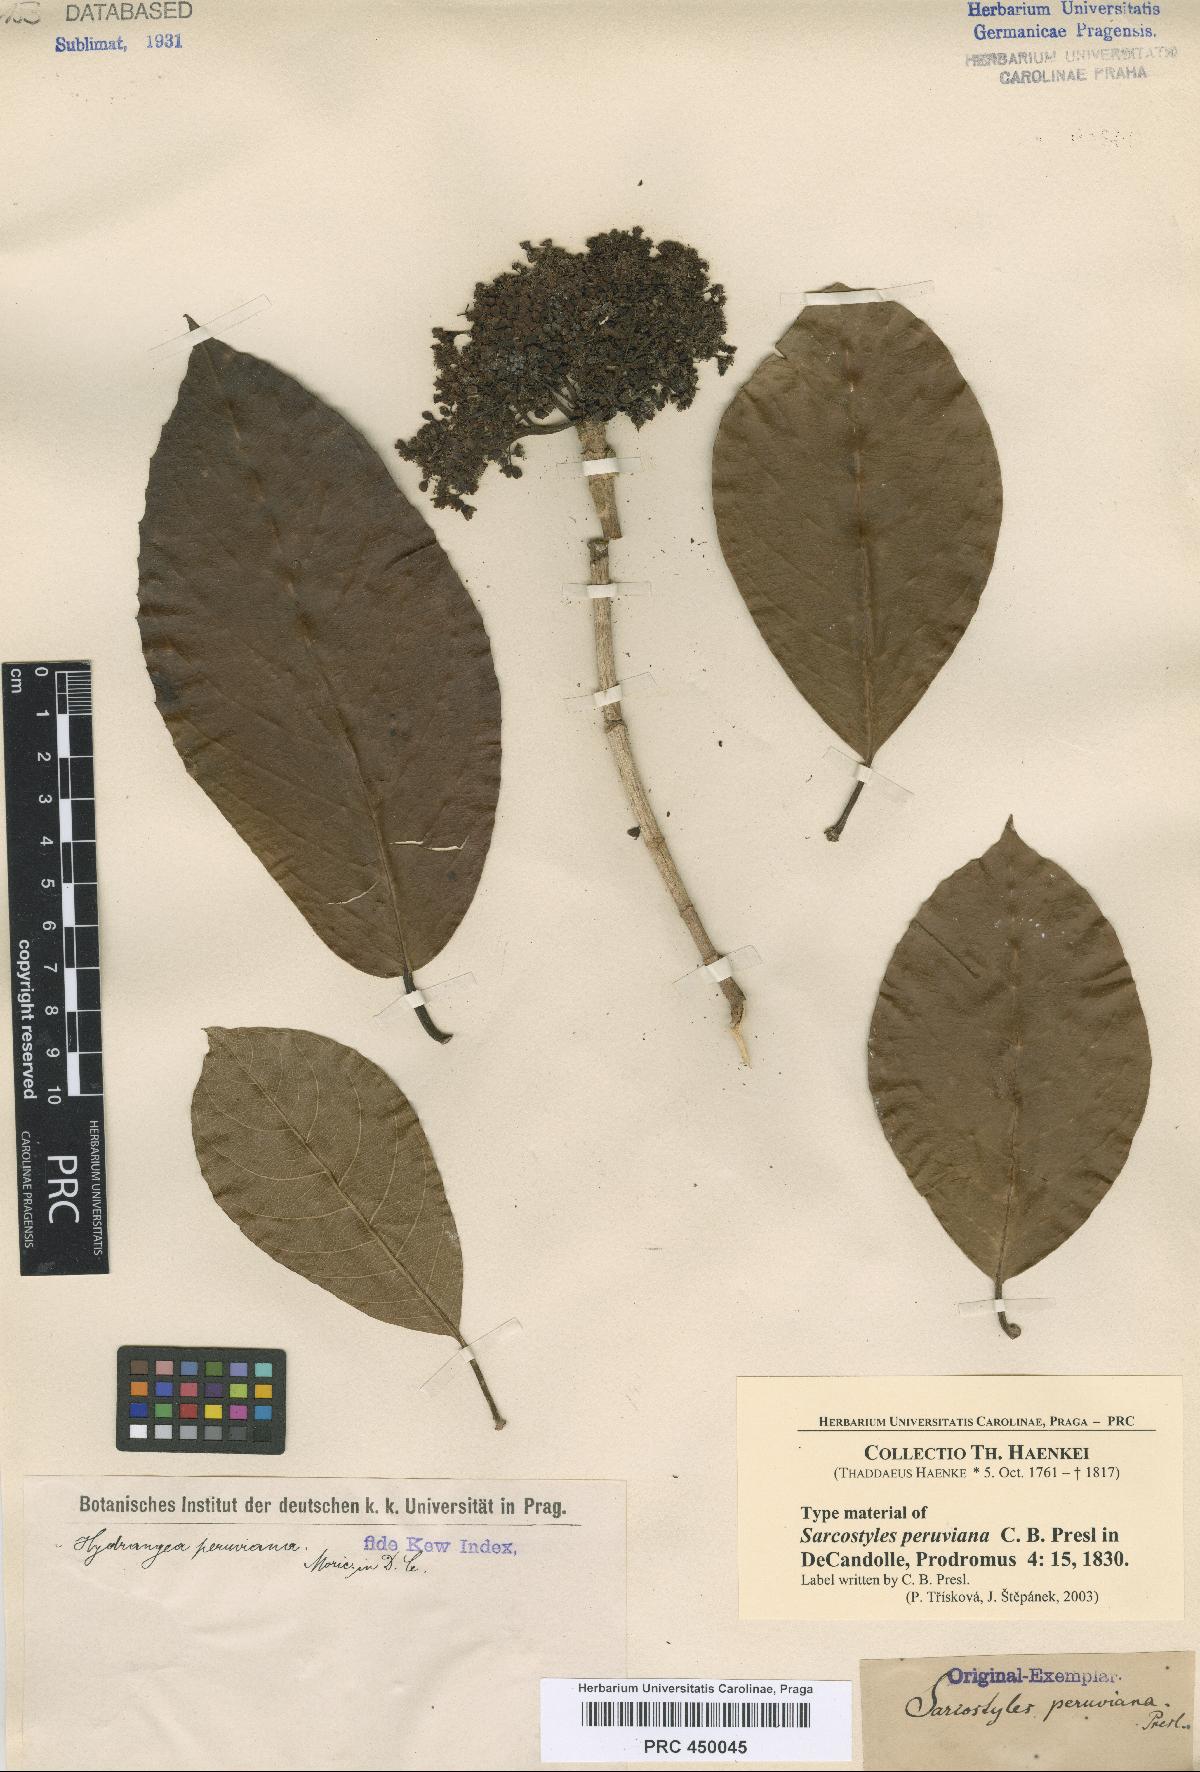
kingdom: Plantae
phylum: Tracheophyta
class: Magnoliopsida
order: Cornales
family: Hydrangeaceae
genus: Hydrangea
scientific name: Hydrangea Sarcostyles peruviana
